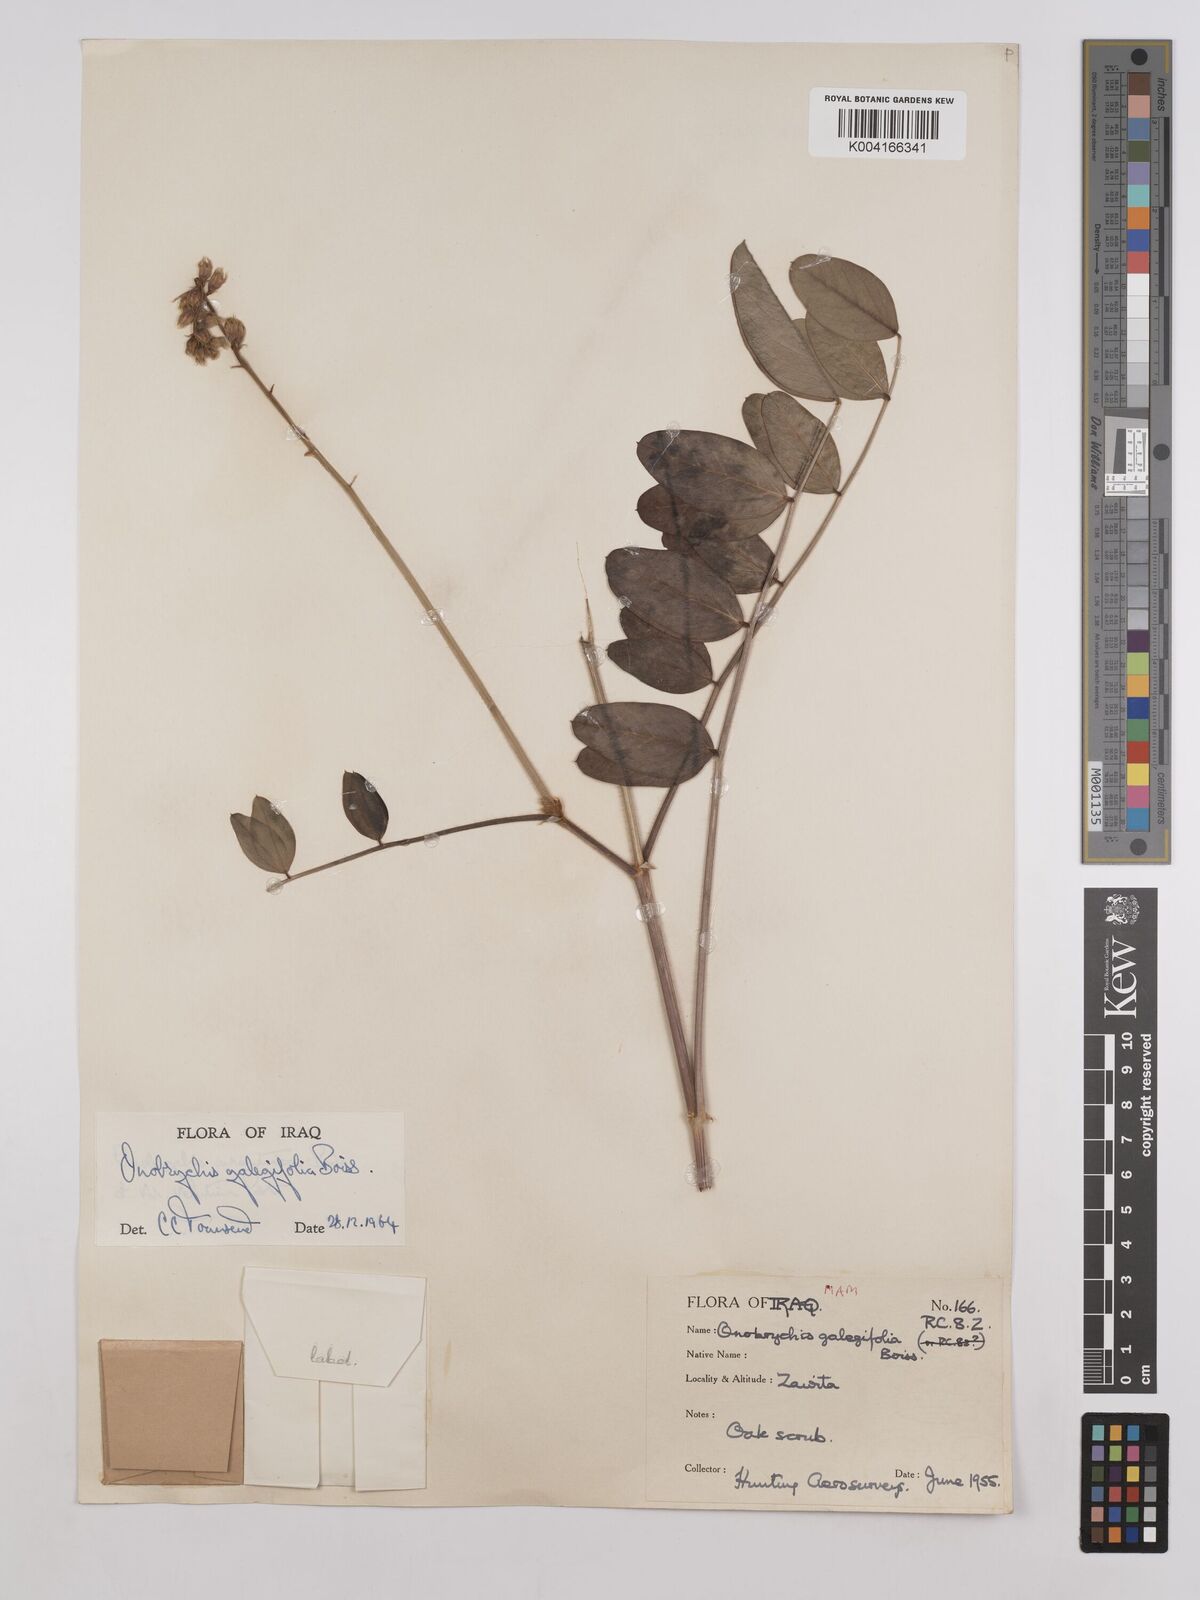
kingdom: Plantae
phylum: Tracheophyta
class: Magnoliopsida
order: Fabales
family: Fabaceae
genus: Onobrychis
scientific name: Onobrychis galegifolia
